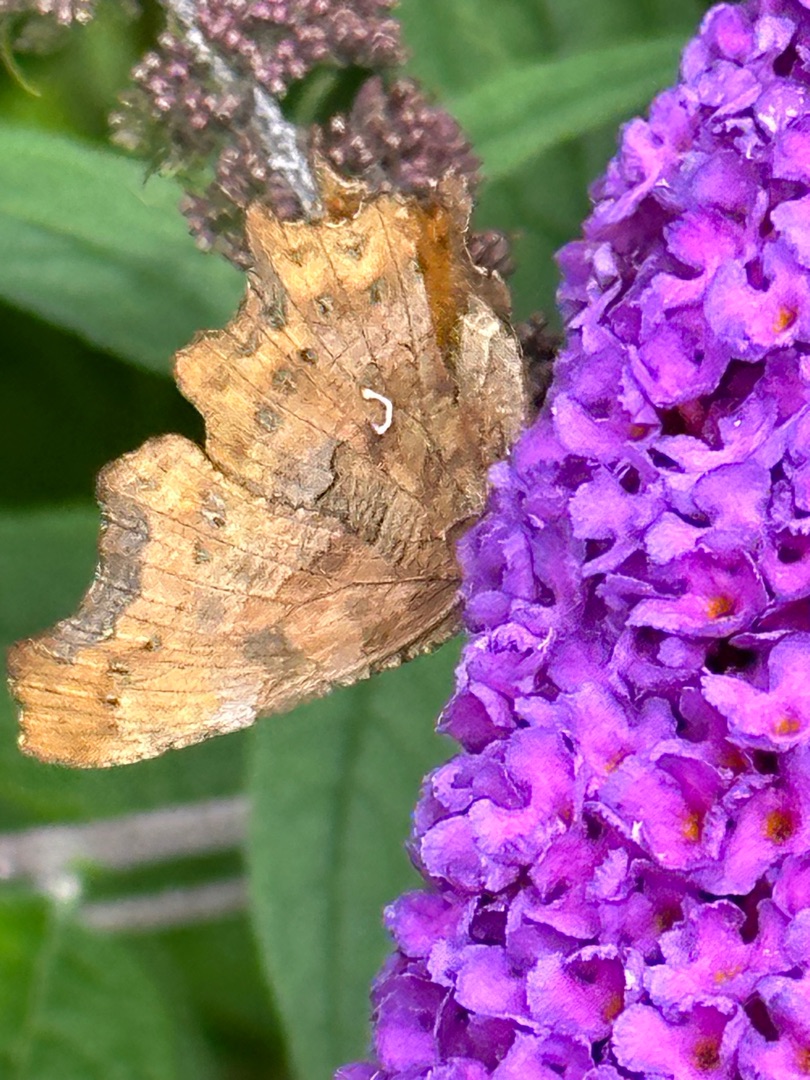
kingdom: Animalia
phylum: Arthropoda
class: Insecta
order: Lepidoptera
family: Nymphalidae
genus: Polygonia
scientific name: Polygonia c-album
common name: Det hvide C
